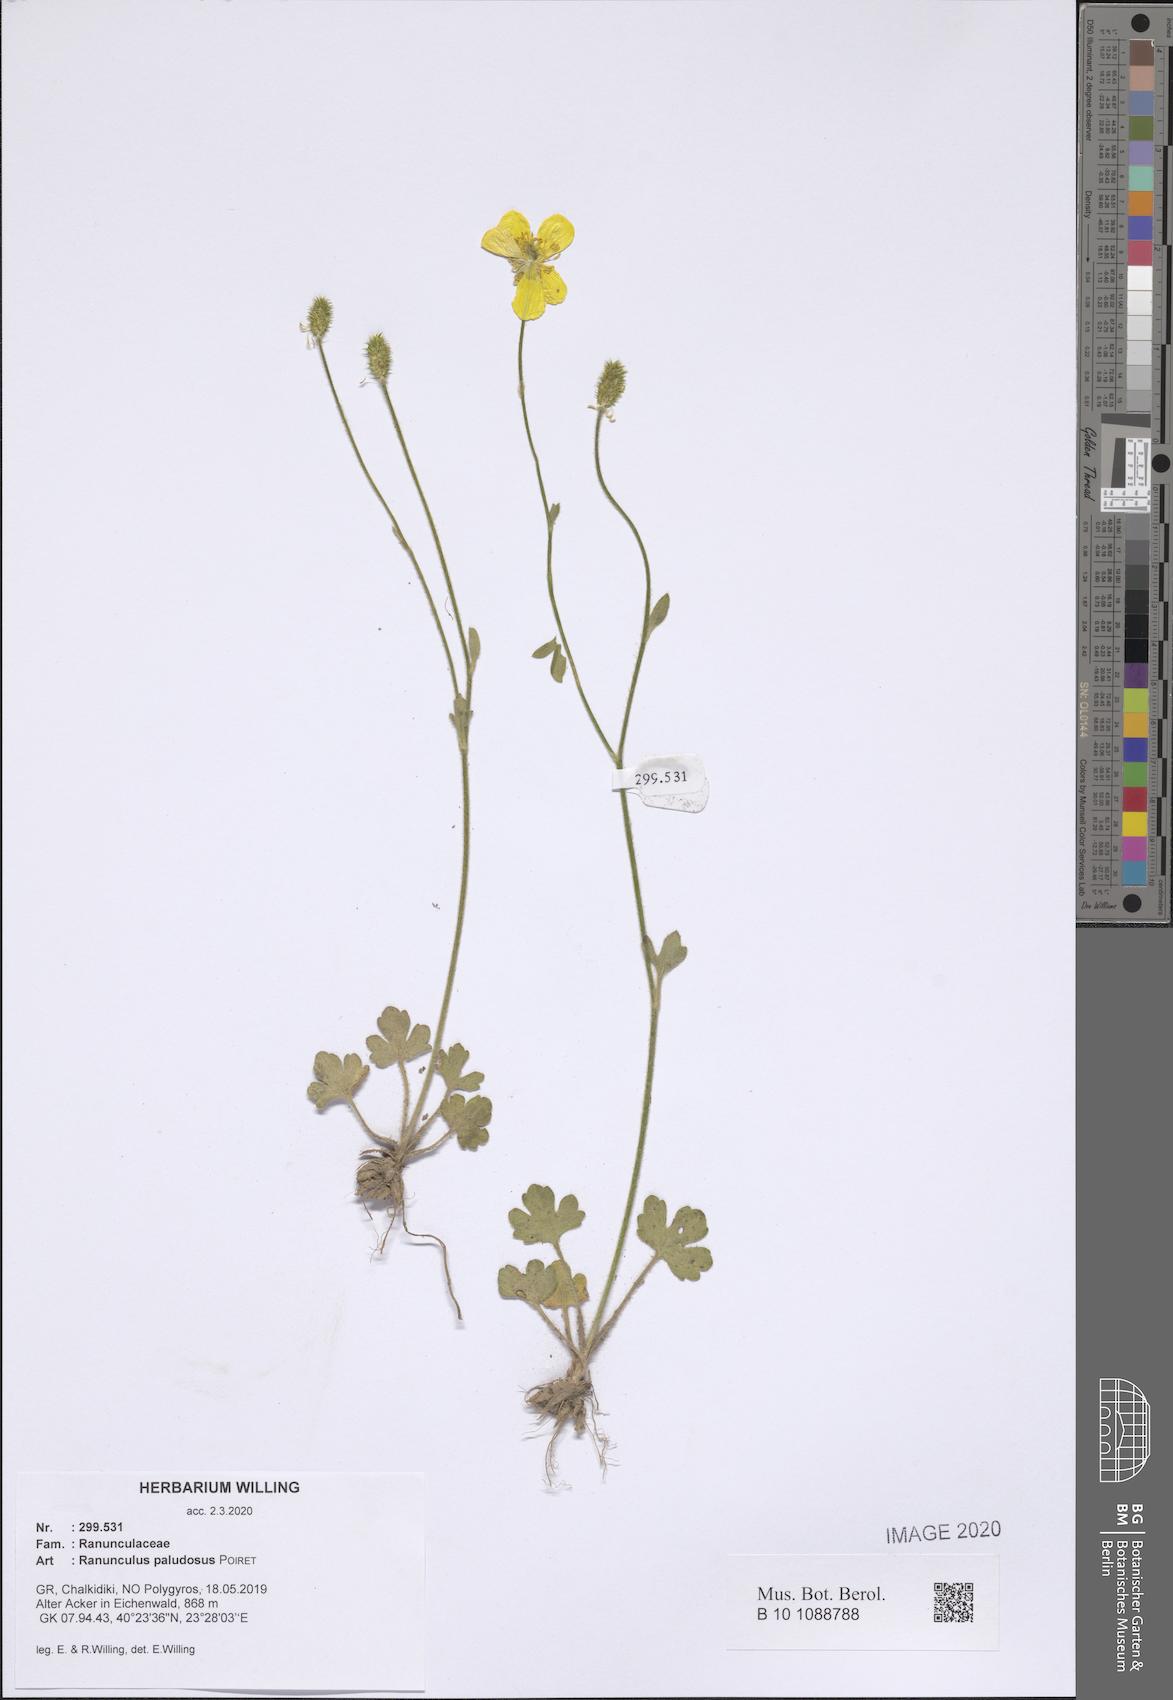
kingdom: Plantae
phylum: Tracheophyta
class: Magnoliopsida
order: Ranunculales
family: Ranunculaceae
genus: Ranunculus
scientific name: Ranunculus paludosus
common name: Jersey buttercup
